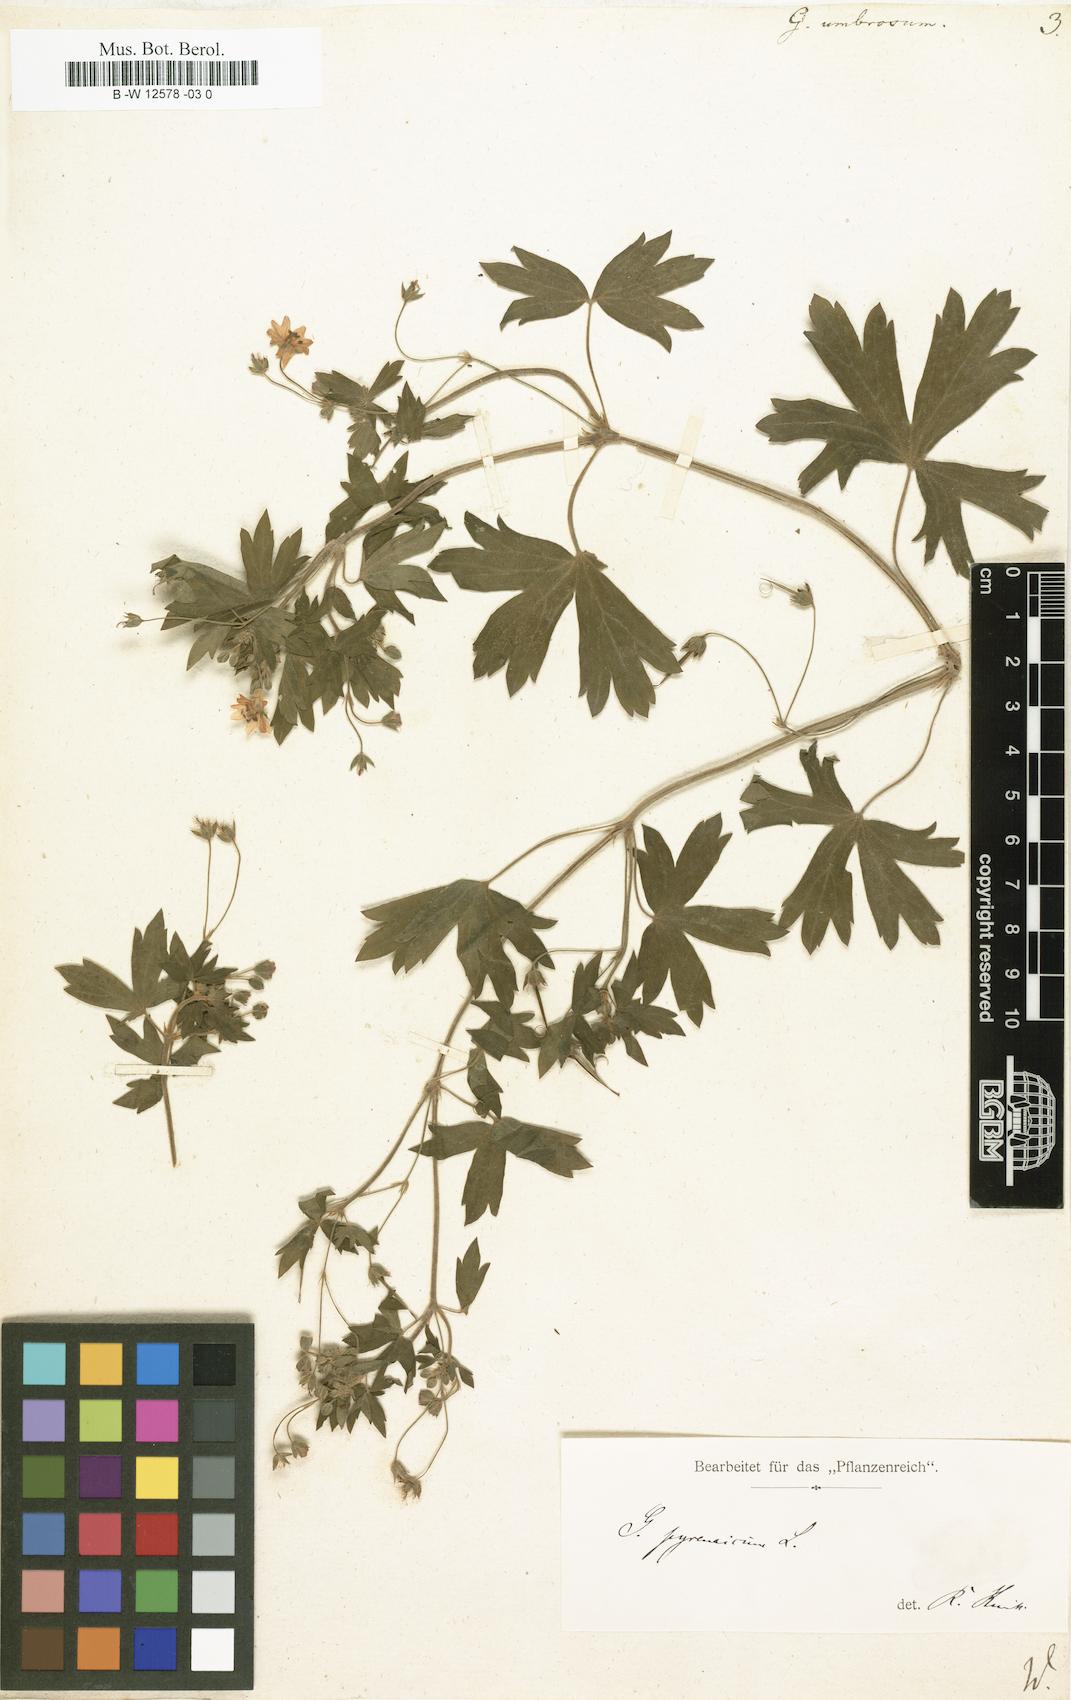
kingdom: Plantae
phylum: Tracheophyta
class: Magnoliopsida
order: Geraniales
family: Geraniaceae
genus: Geranium
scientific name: Geranium pyrenaicum
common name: Hedgerow crane's-bill
